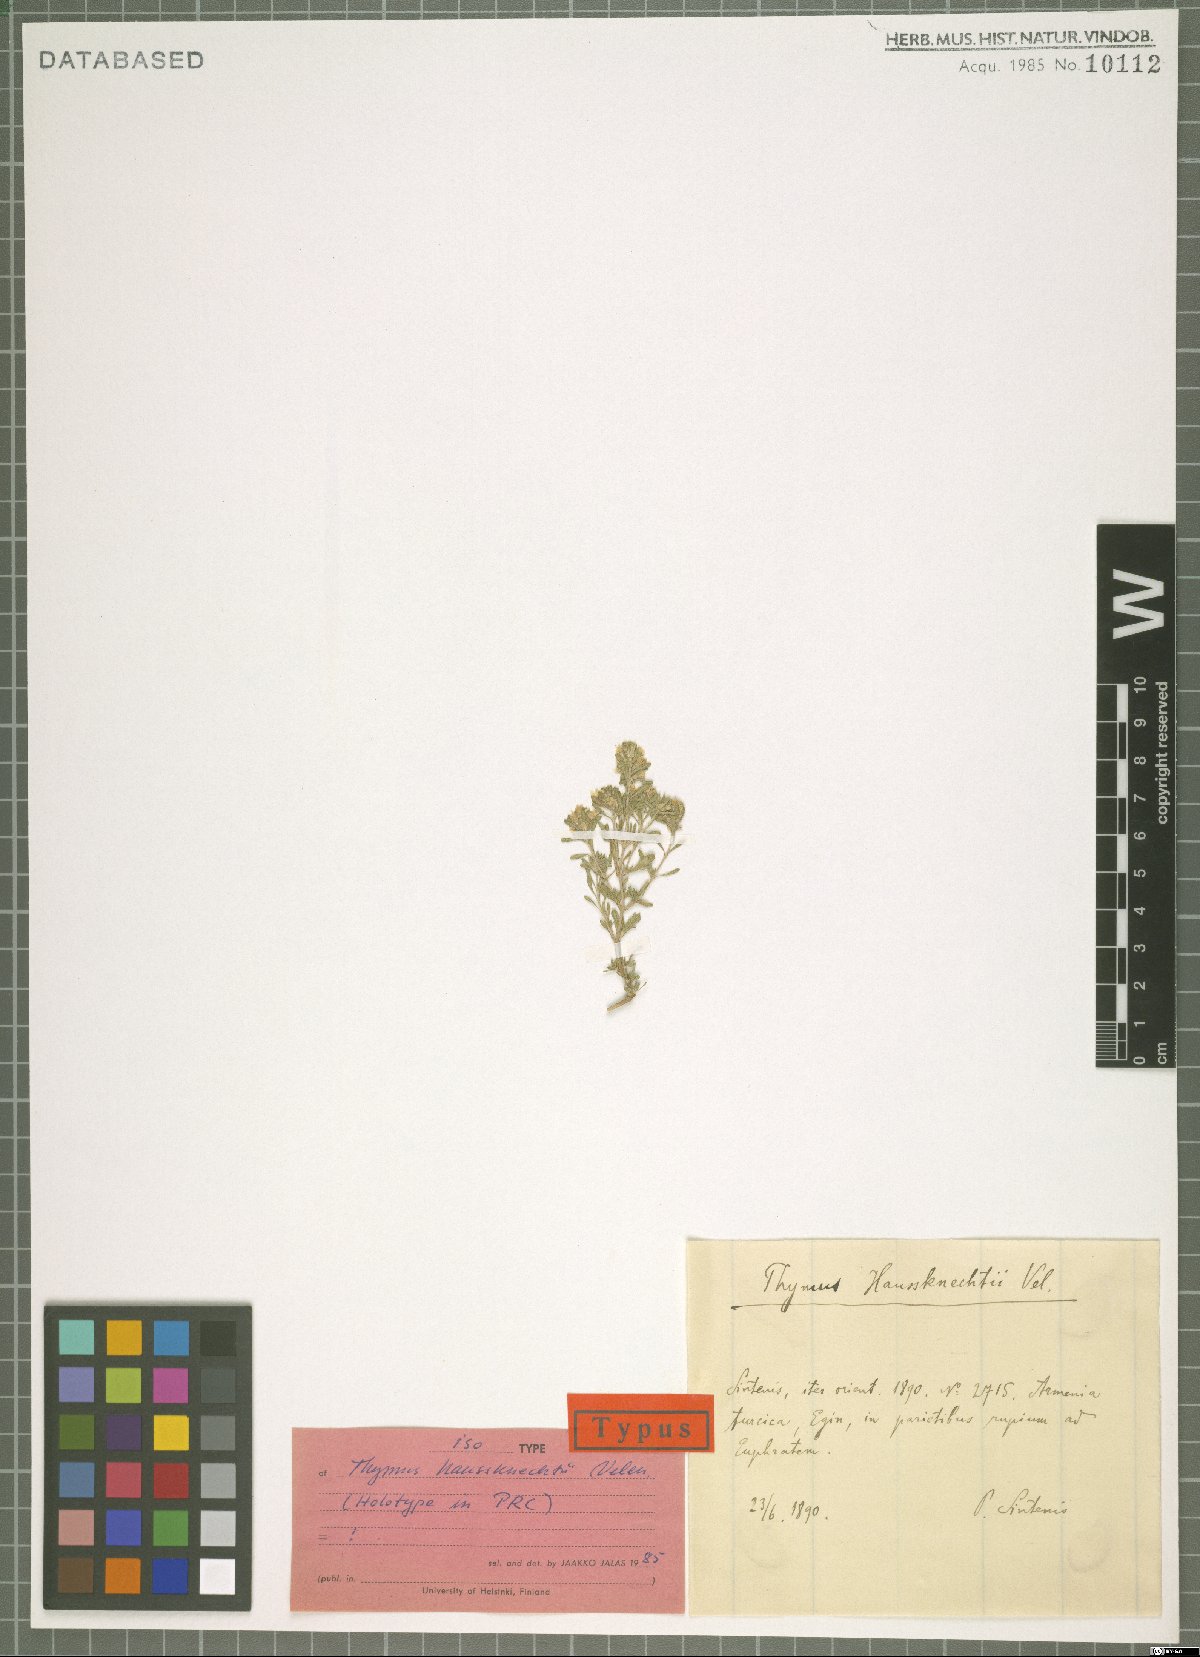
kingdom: Plantae
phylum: Tracheophyta
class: Magnoliopsida
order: Lamiales
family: Lamiaceae
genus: Thymus
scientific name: Thymus haussknechtii
